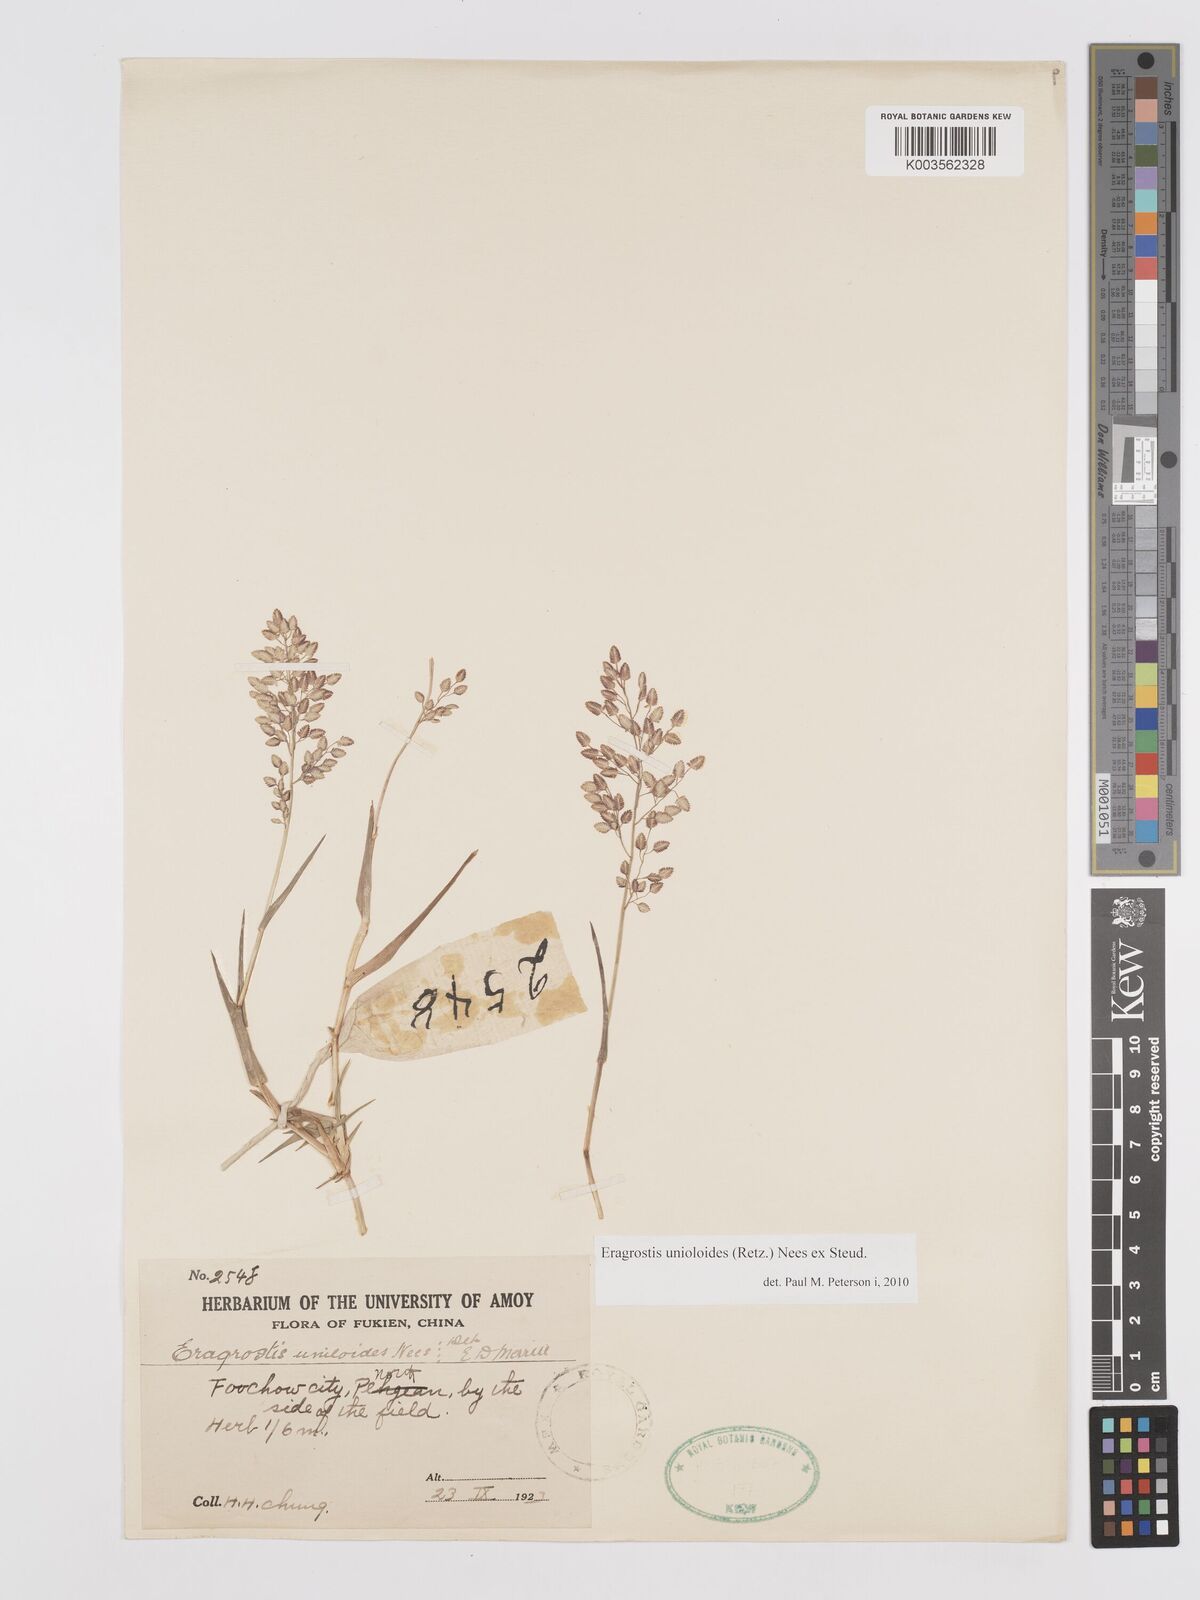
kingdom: Plantae
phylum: Tracheophyta
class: Liliopsida
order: Poales
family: Poaceae
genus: Eragrostis
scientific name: Eragrostis unioloides
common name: Chinese lovegrass
